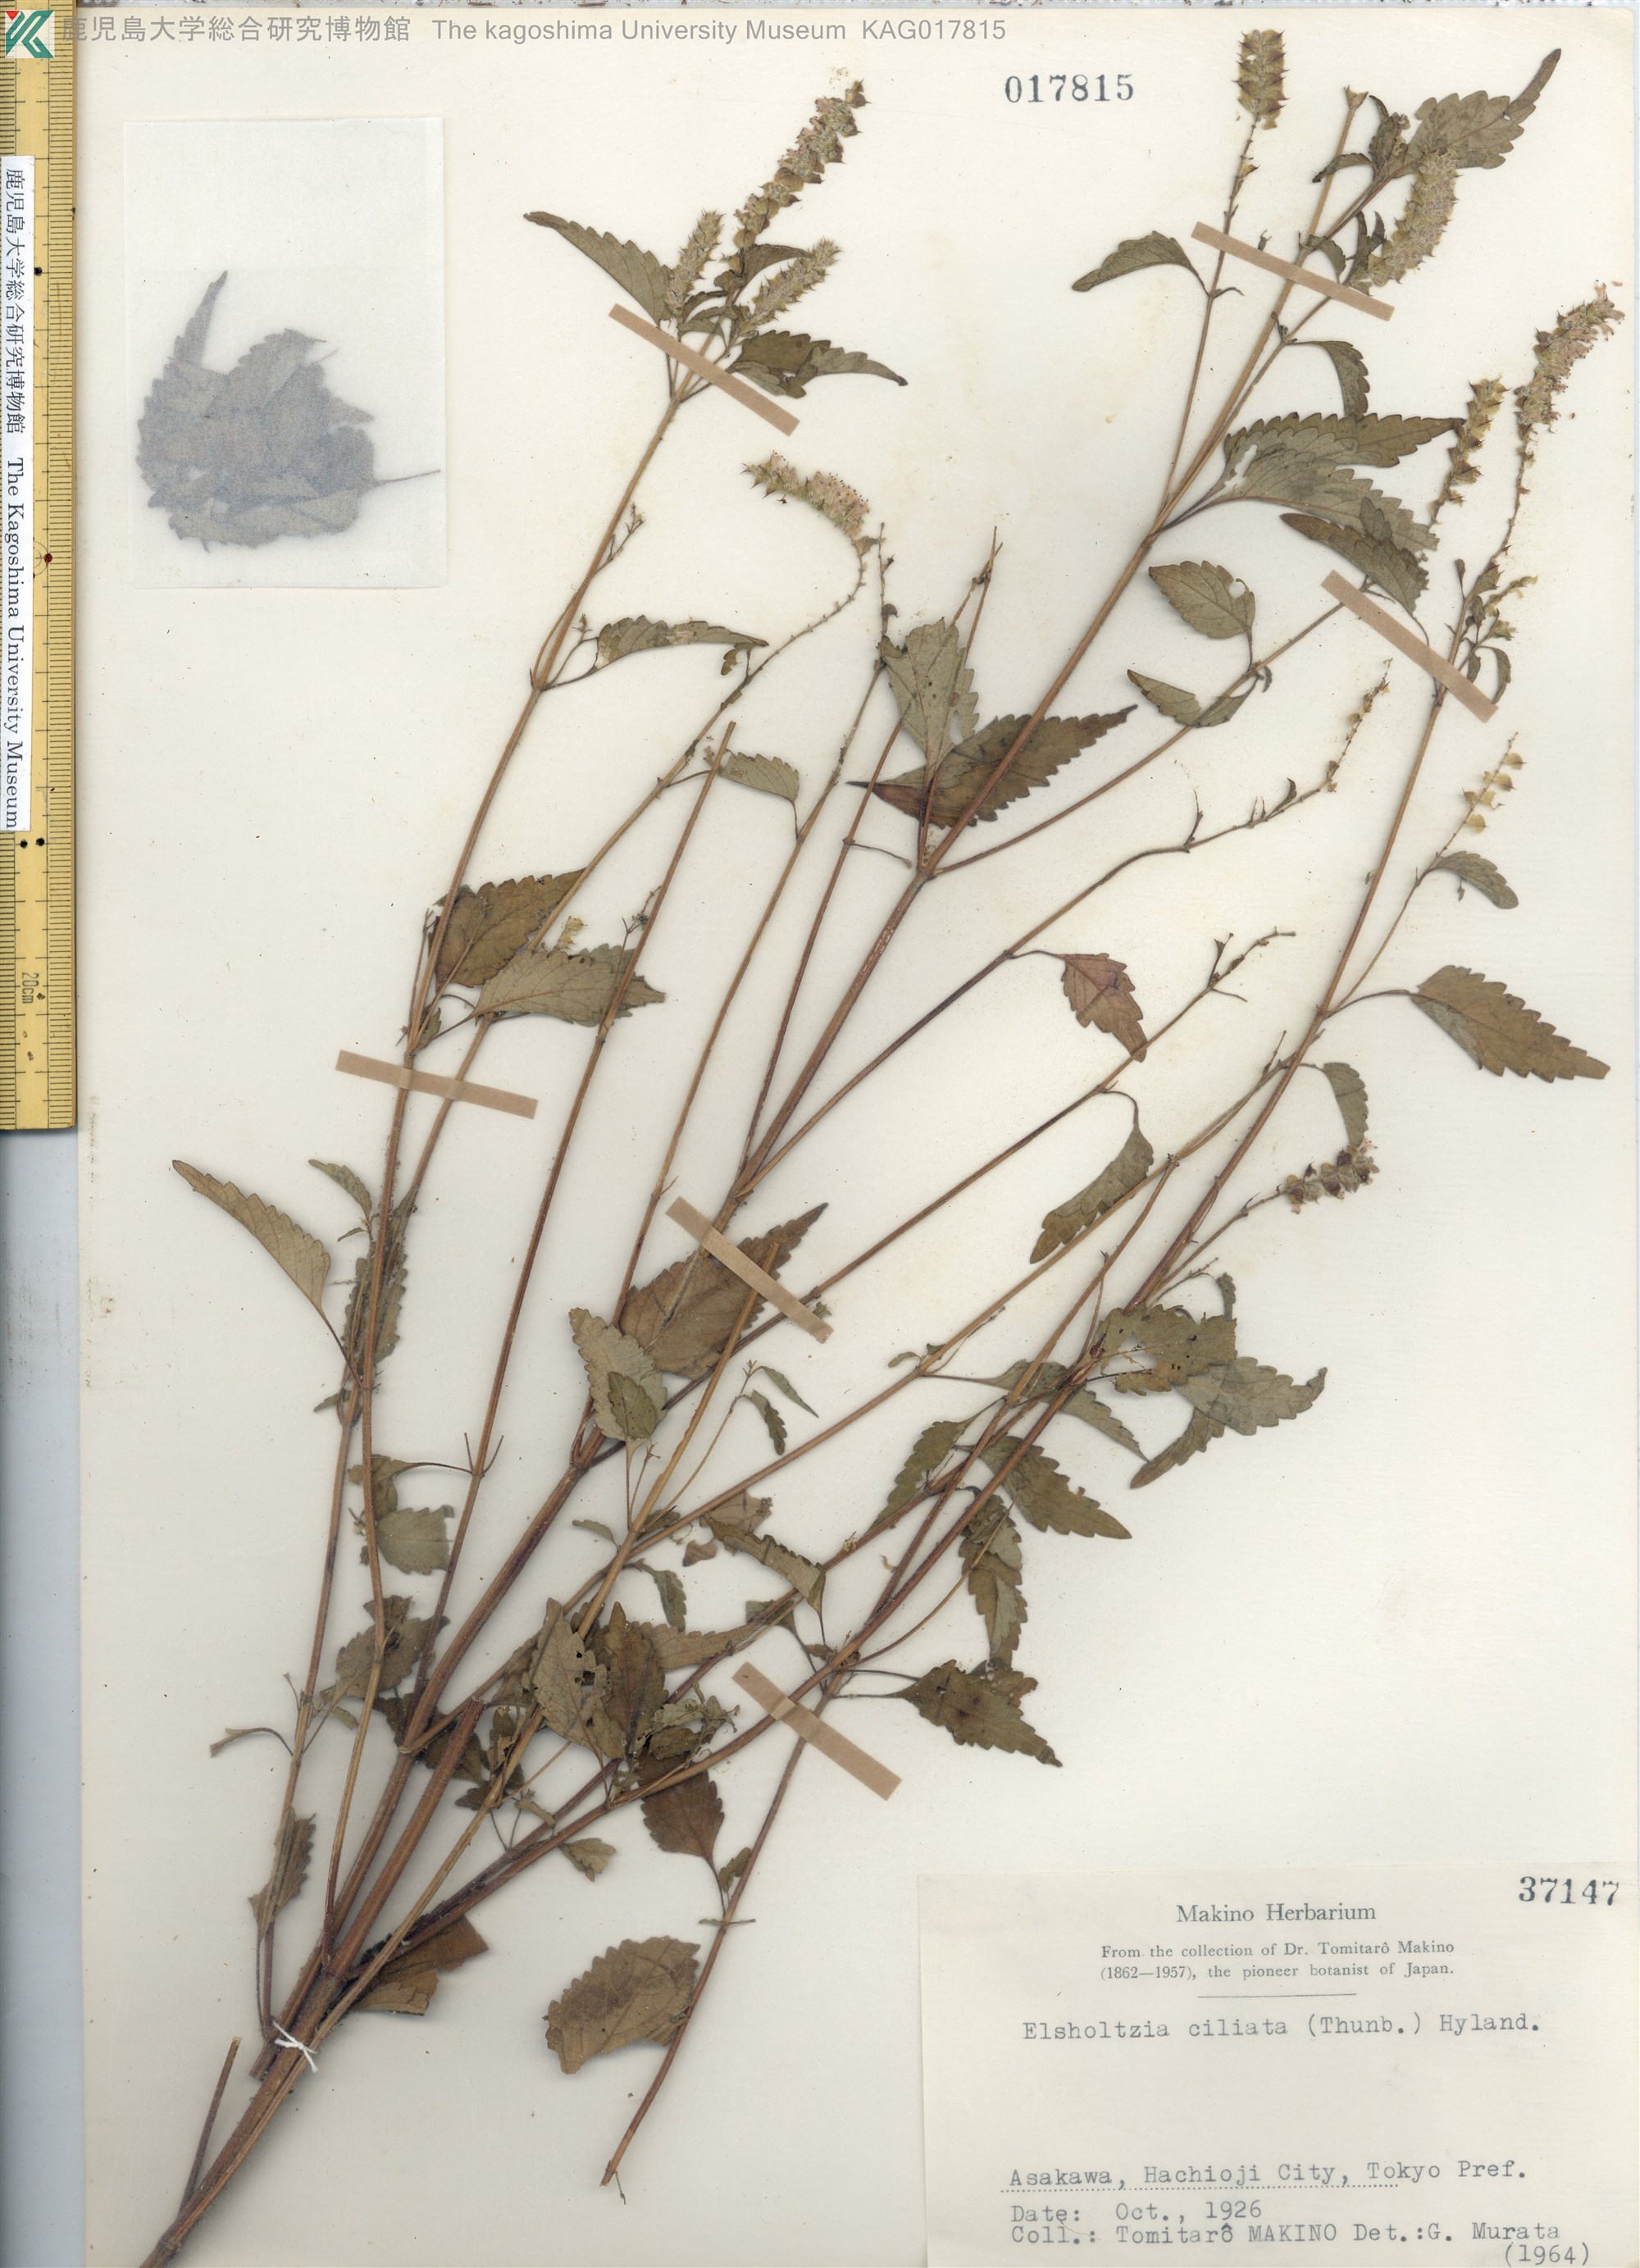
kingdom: Plantae
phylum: Tracheophyta
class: Magnoliopsida
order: Lamiales
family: Lamiaceae
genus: Elsholtzia
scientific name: Elsholtzia ciliata
